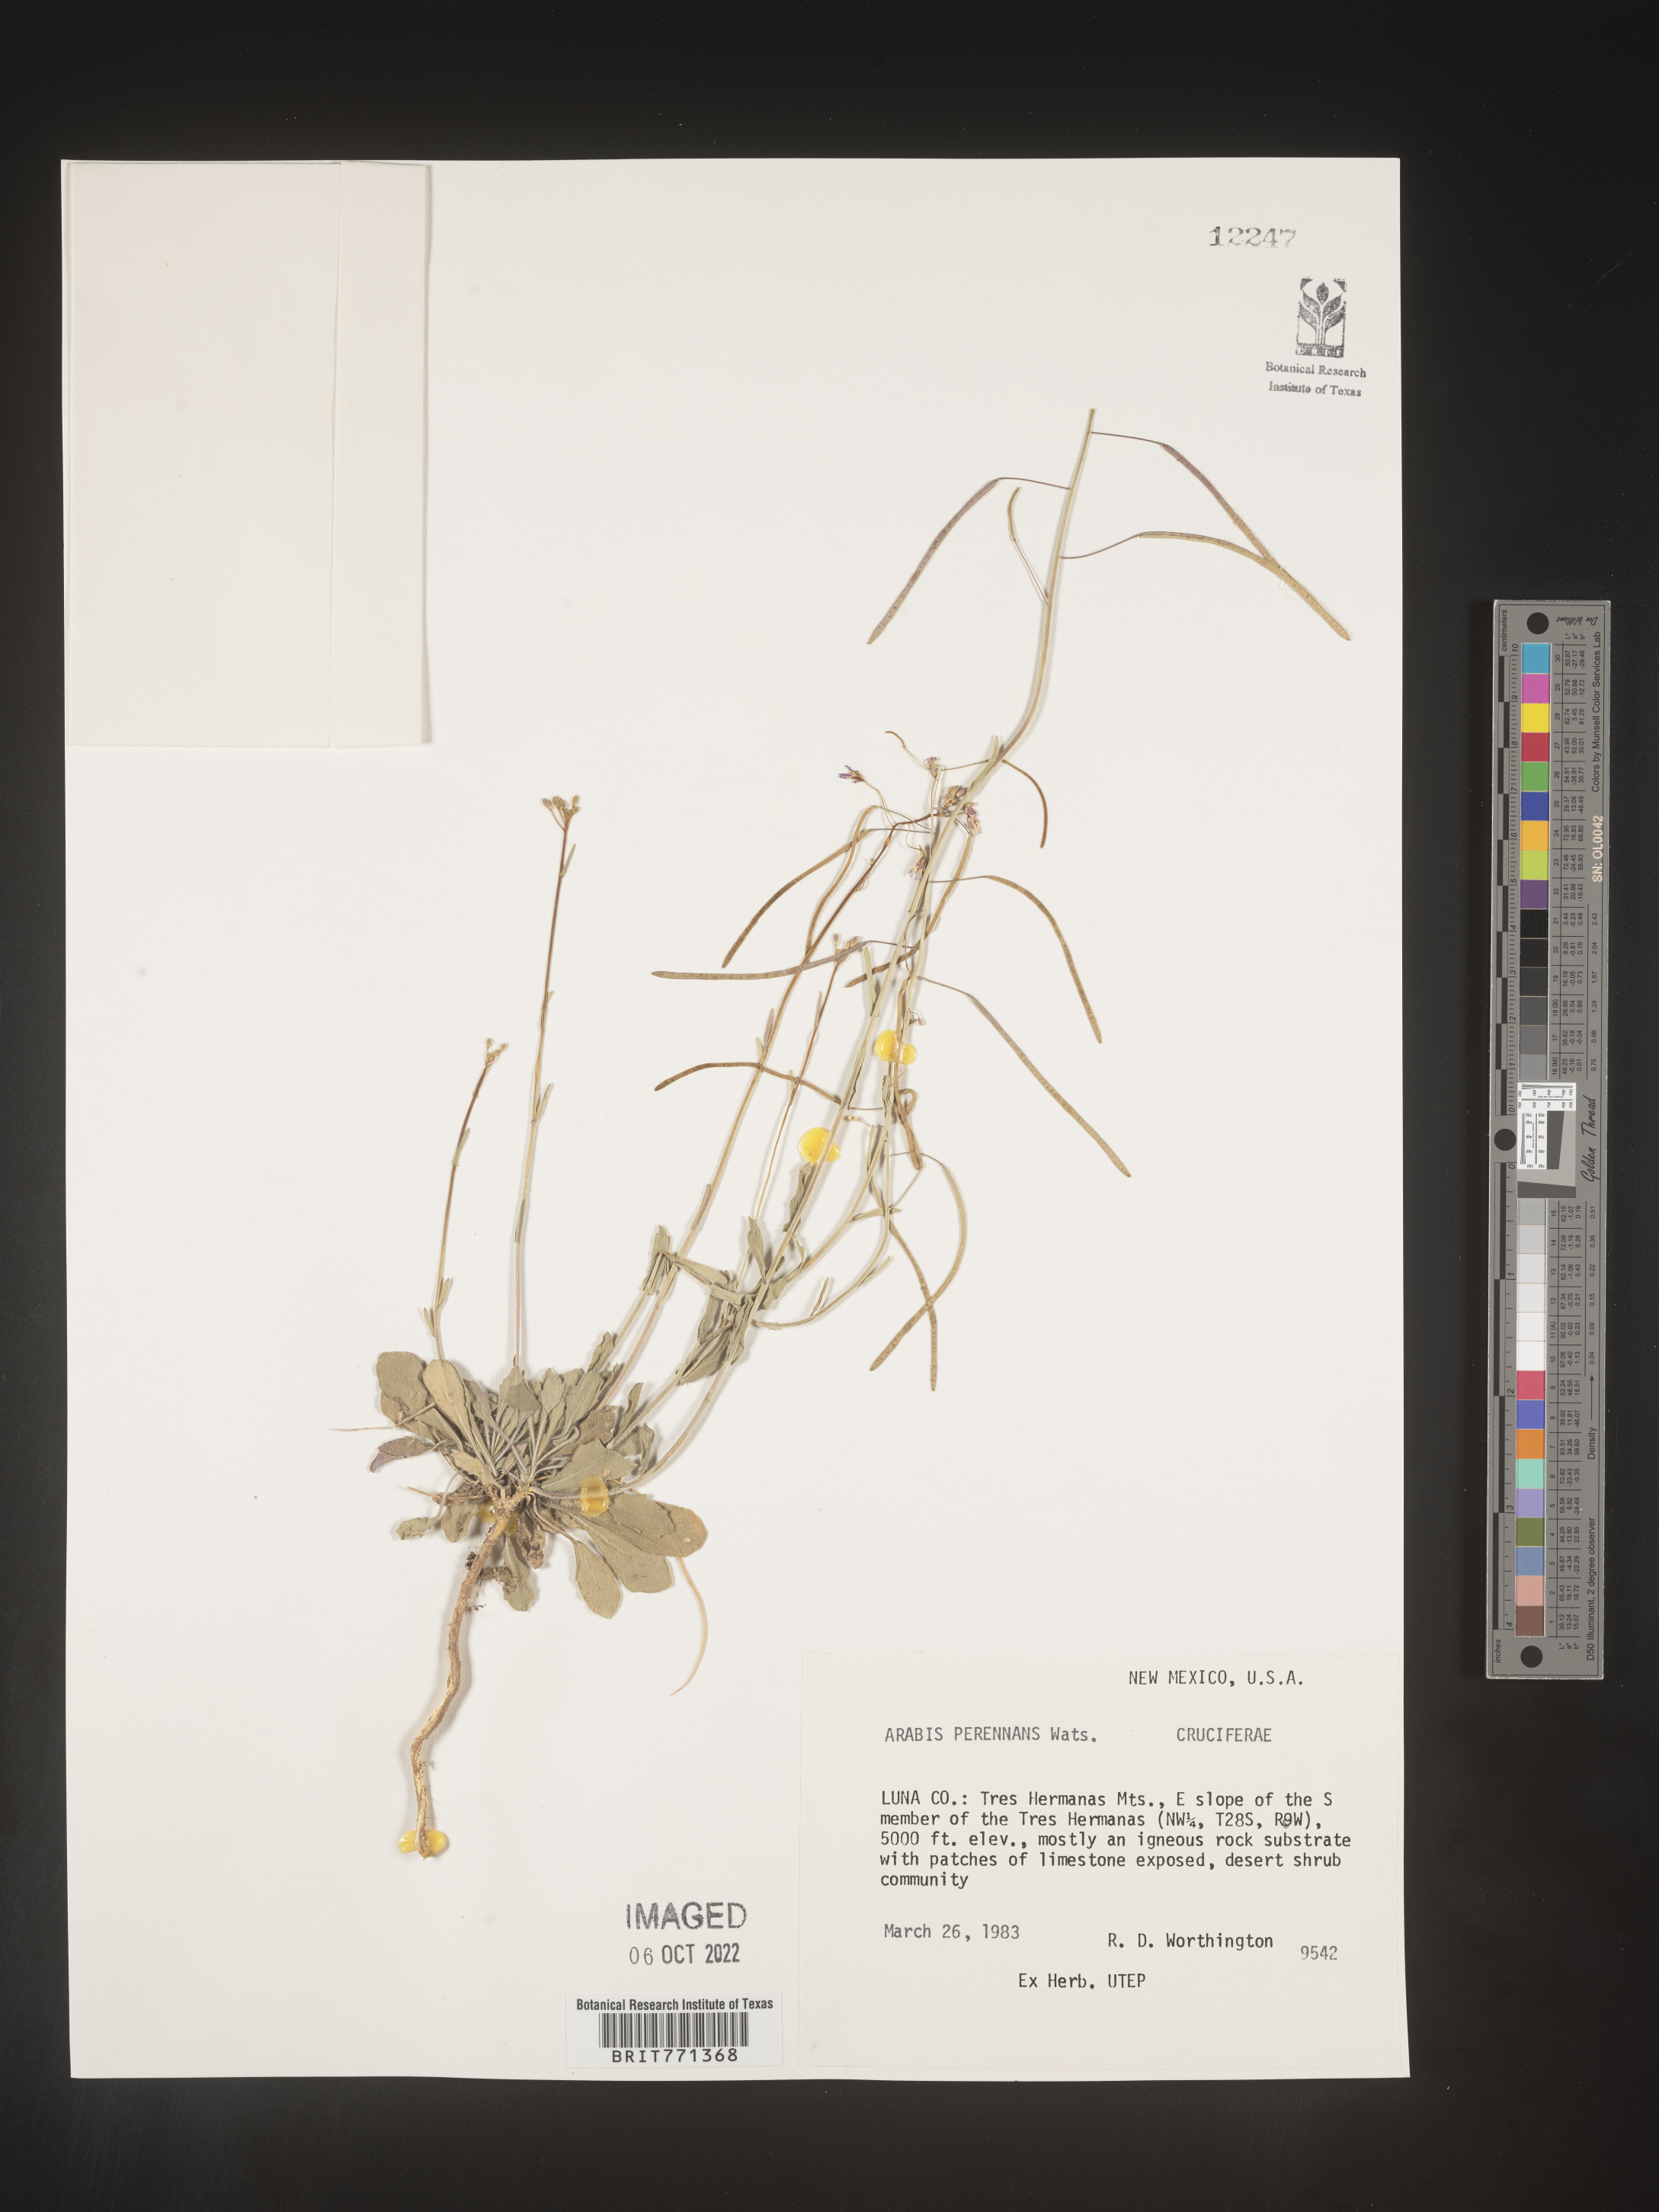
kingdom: Plantae
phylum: Tracheophyta
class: Magnoliopsida
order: Brassicales
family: Brassicaceae
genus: Arabis
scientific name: Arabis
